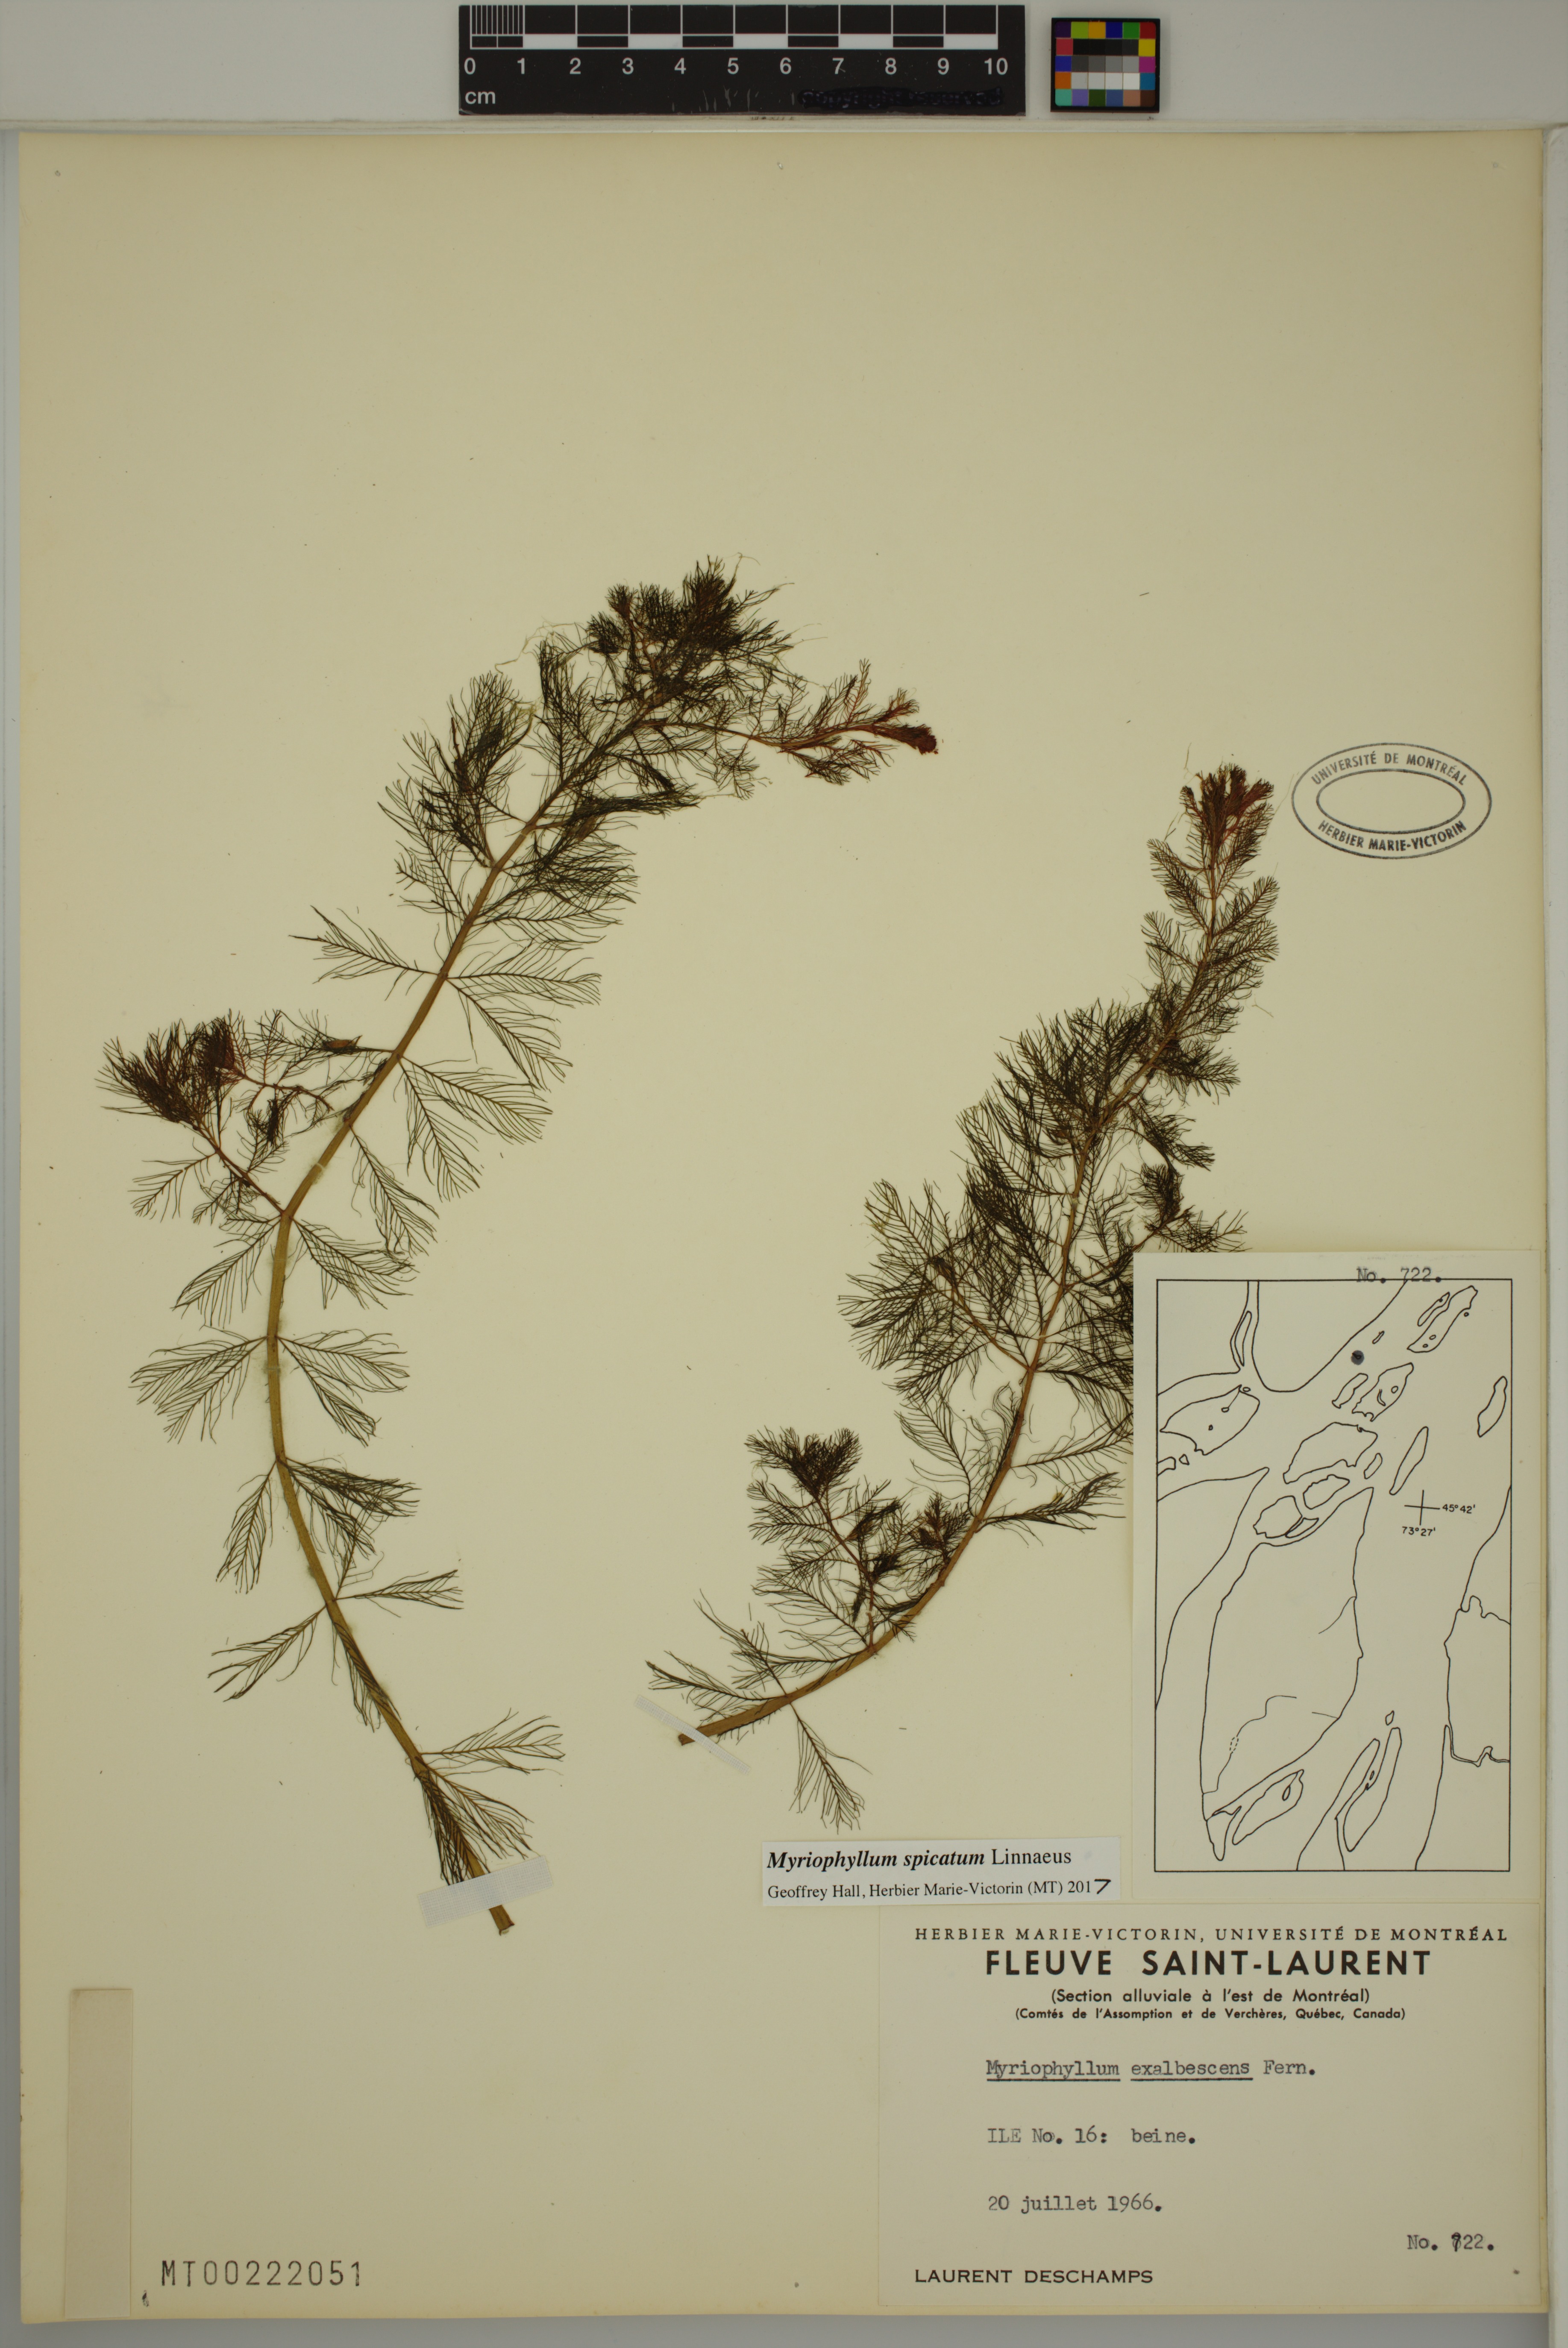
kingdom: Plantae
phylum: Tracheophyta
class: Magnoliopsida
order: Saxifragales
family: Haloragaceae
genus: Myriophyllum
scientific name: Myriophyllum spicatum
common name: Spiked water-milfoil
